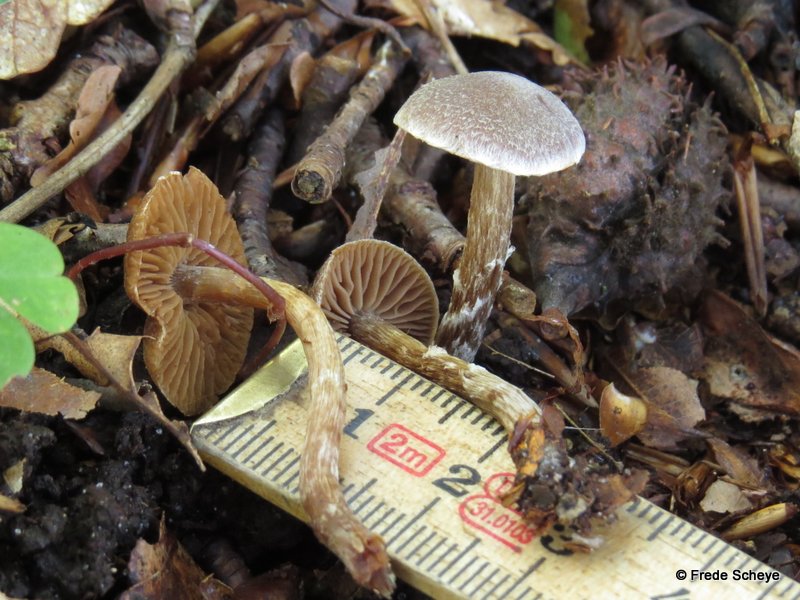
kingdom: Fungi
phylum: Basidiomycota
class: Agaricomycetes
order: Agaricales
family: Cortinariaceae
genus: Cortinarius
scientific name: Cortinarius geraniolens
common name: geranium-slørhat
